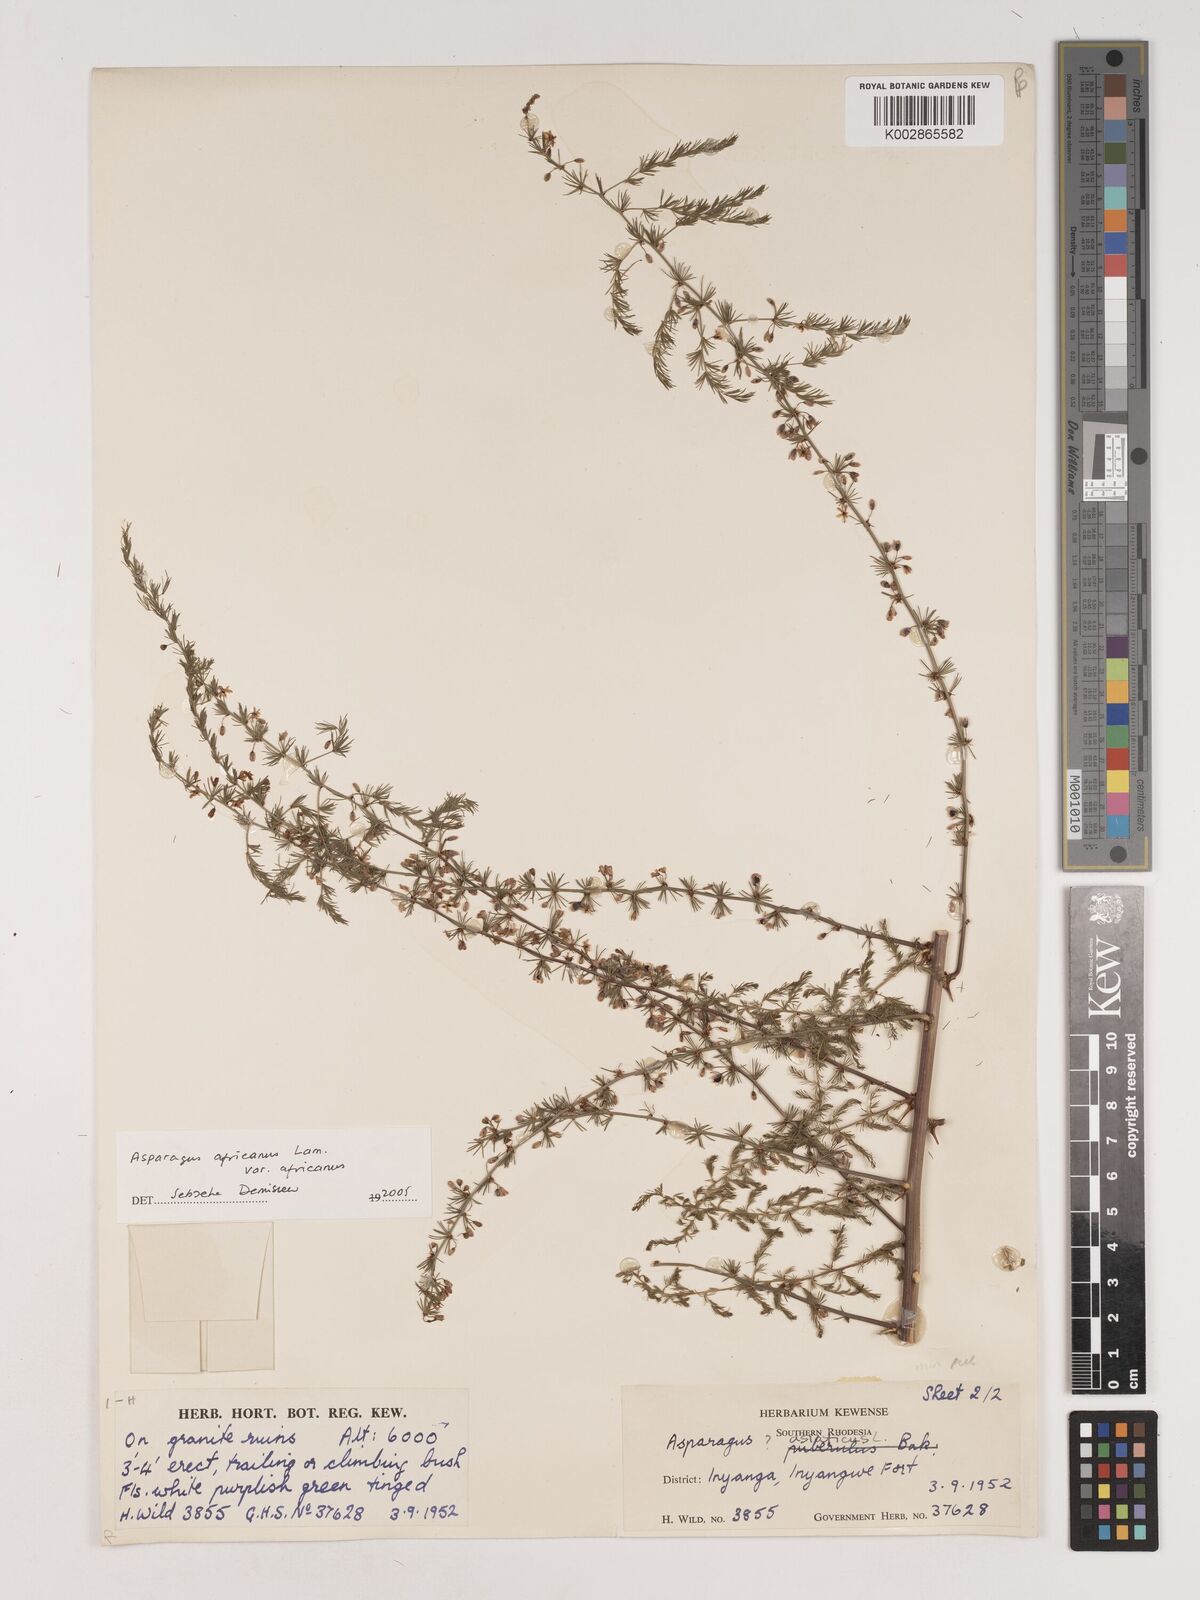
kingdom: Plantae
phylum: Tracheophyta
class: Liliopsida
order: Asparagales
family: Asparagaceae
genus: Asparagus
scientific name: Asparagus africanus
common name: Asparagus-fern
